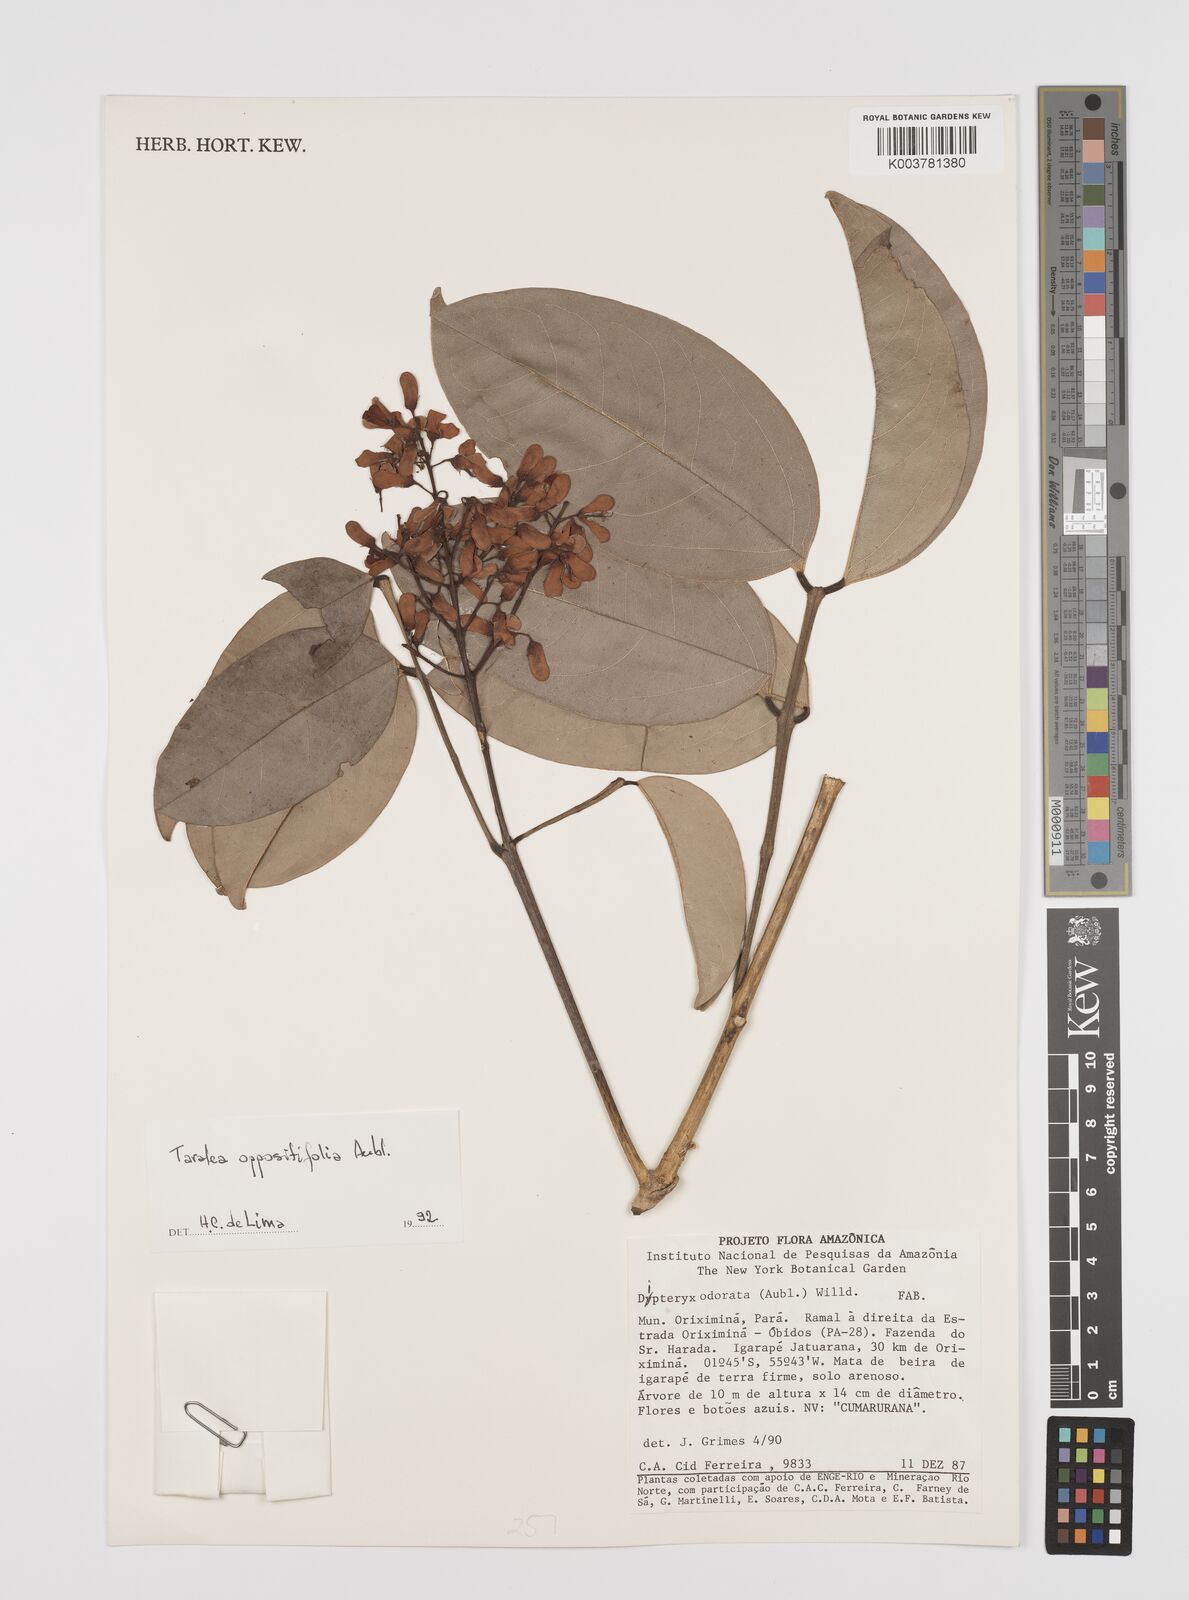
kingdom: Plantae
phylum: Tracheophyta
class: Magnoliopsida
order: Fabales
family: Fabaceae
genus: Taralea
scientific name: Taralea oppositifolia
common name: Tonka
